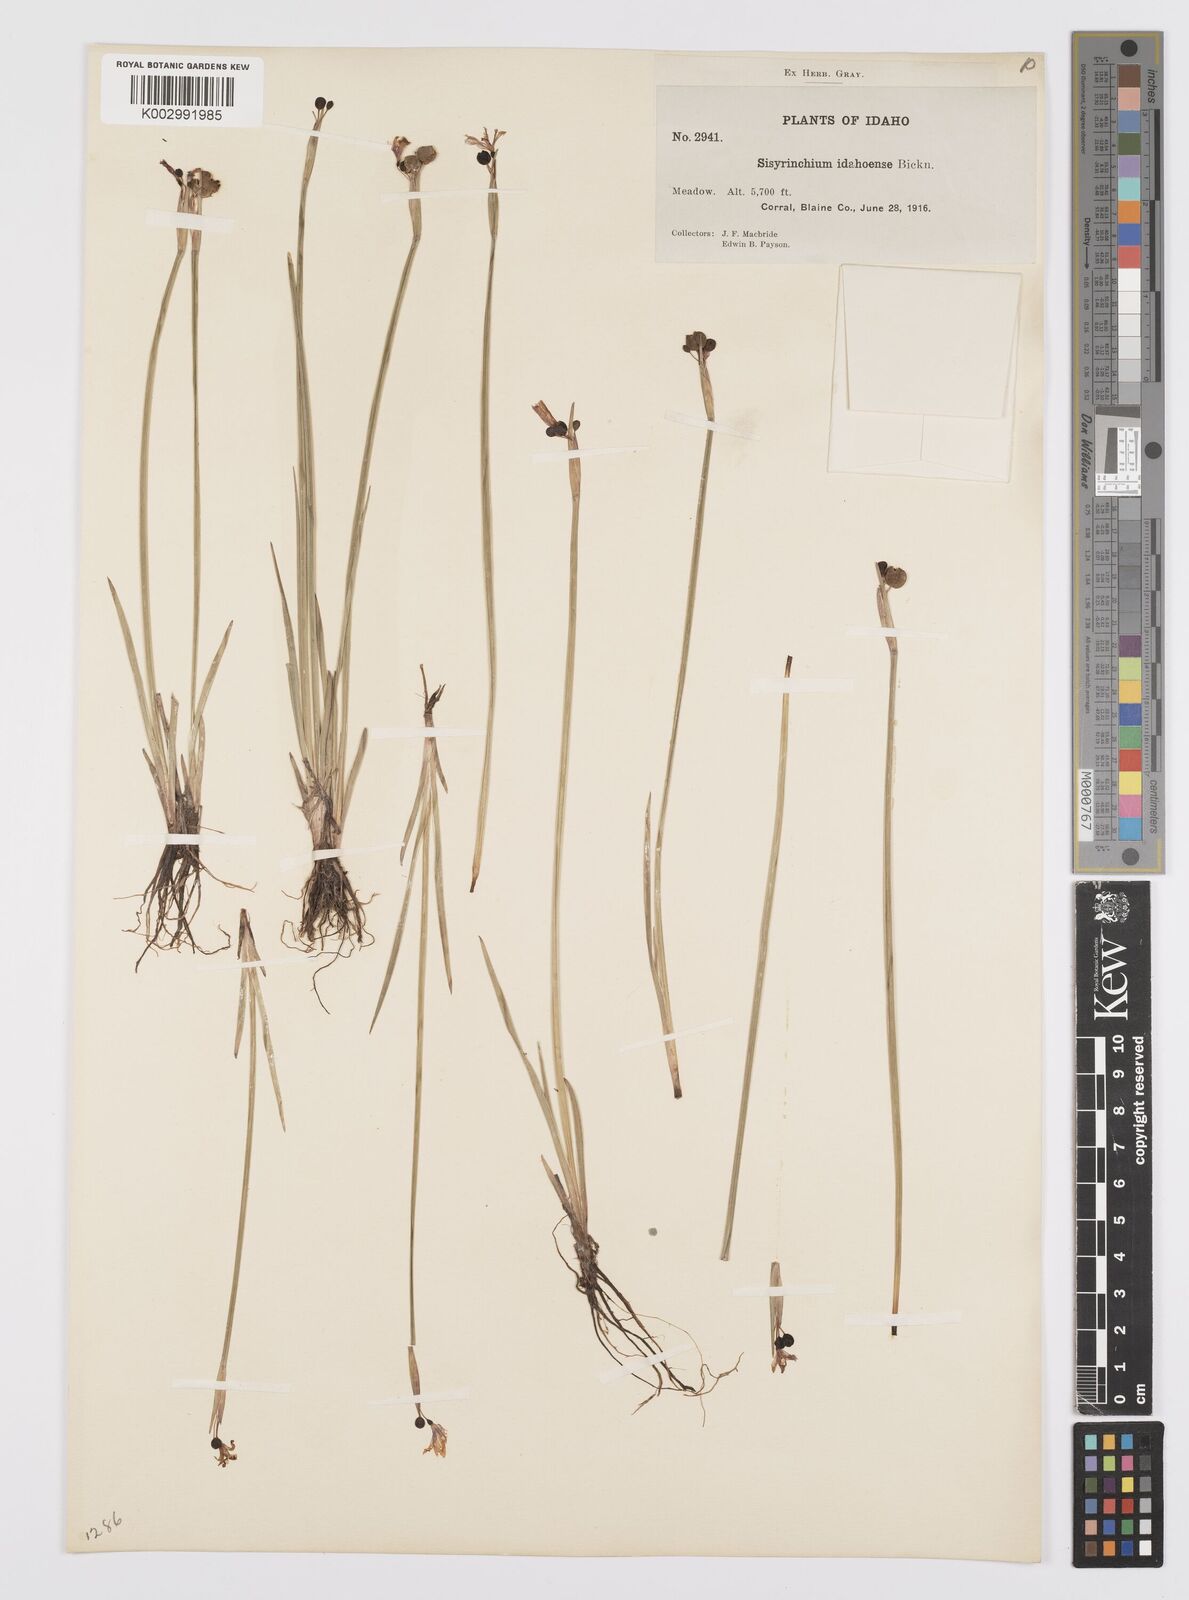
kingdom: Plantae
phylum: Tracheophyta
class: Liliopsida
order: Asparagales
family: Iridaceae
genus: Sisyrinchium
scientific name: Sisyrinchium idahoense
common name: Idaho blue-eyed-grass
